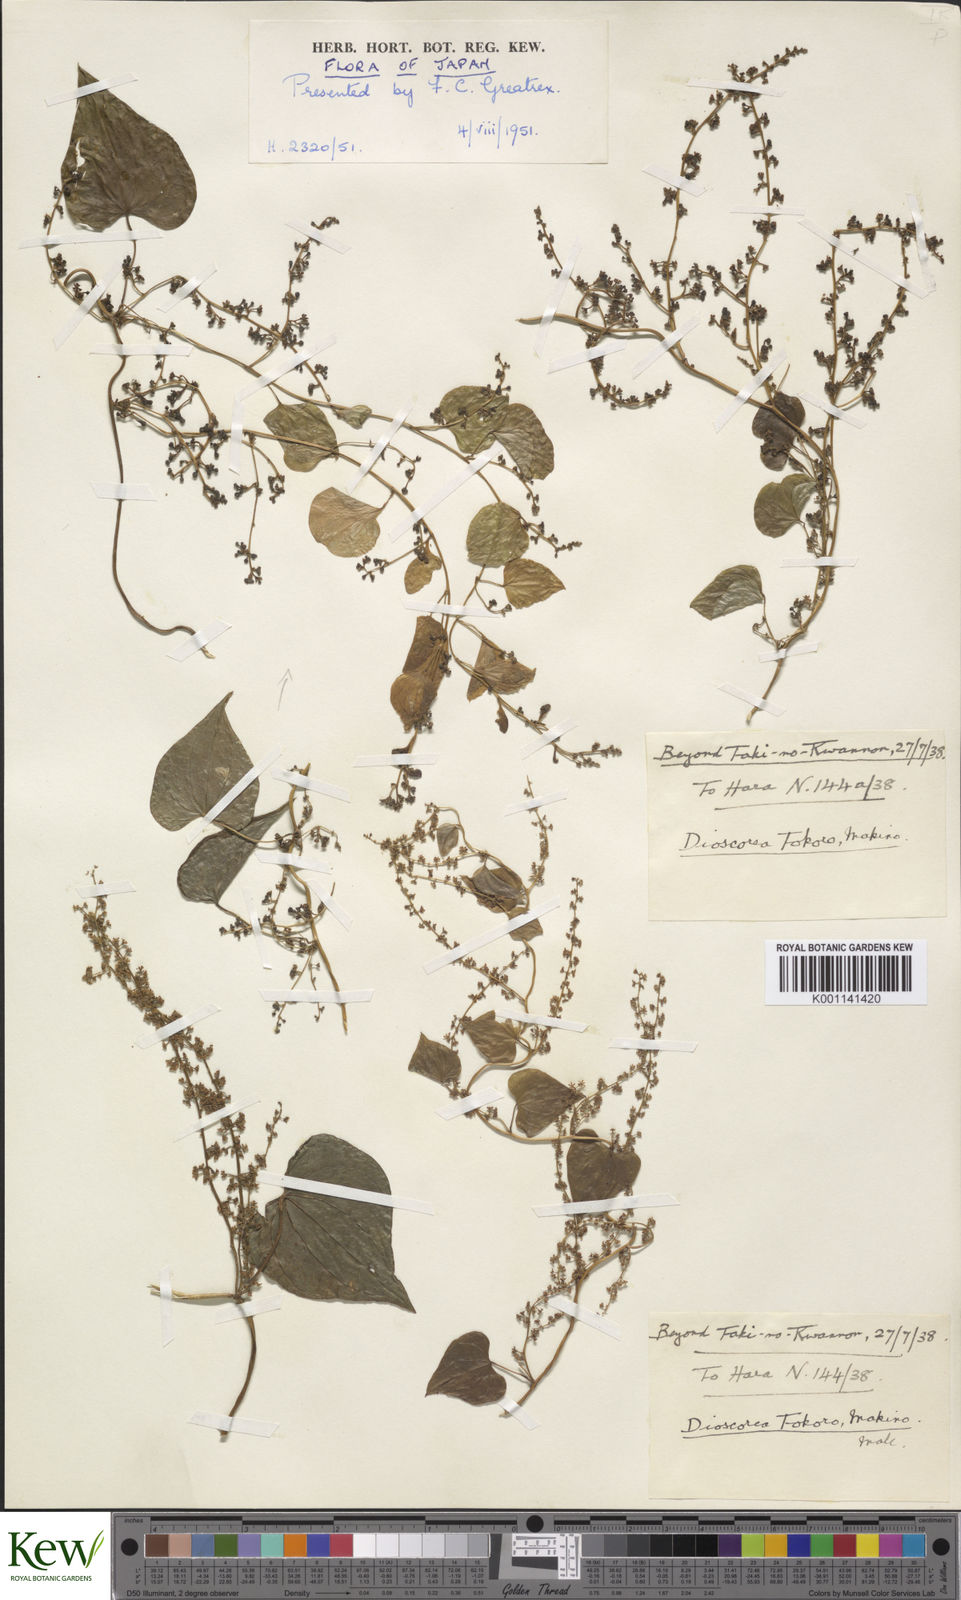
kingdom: Plantae
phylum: Tracheophyta
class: Liliopsida
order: Dioscoreales
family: Dioscoreaceae
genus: Dioscorea
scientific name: Dioscorea tokoro
